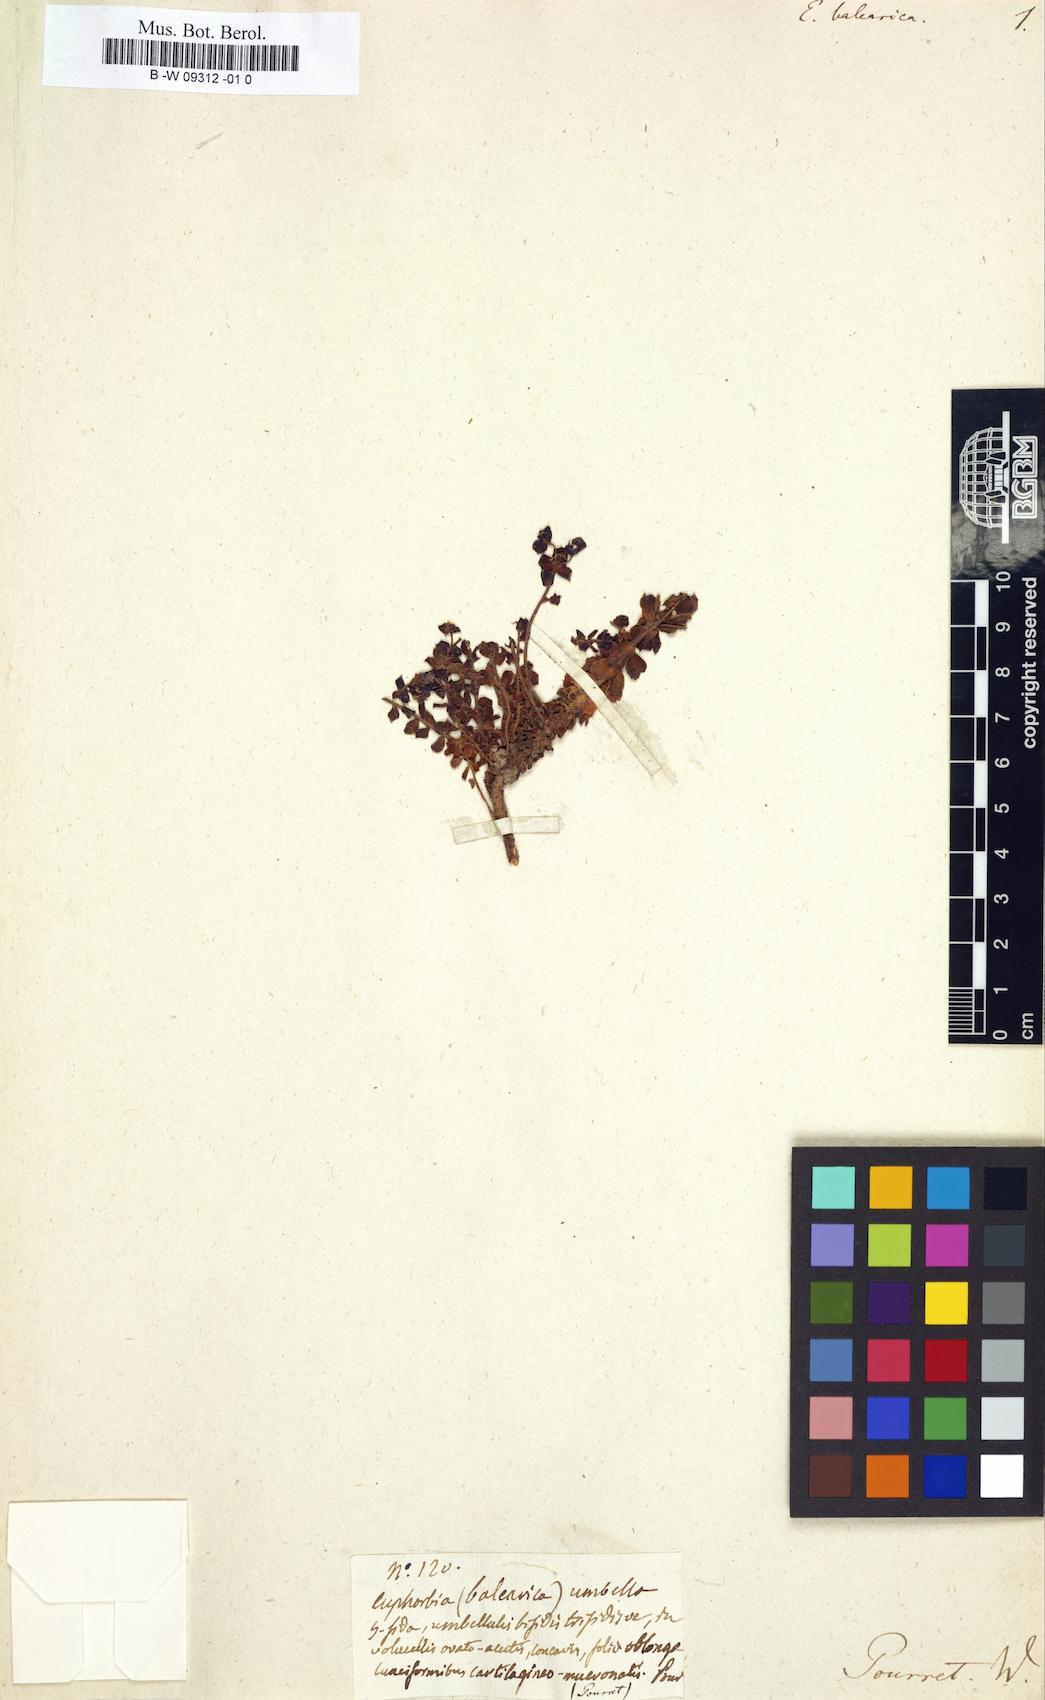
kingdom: Plantae
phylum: Tracheophyta
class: Magnoliopsida
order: Malpighiales
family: Euphorbiaceae
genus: Euphorbia
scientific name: Euphorbia pithyusa
